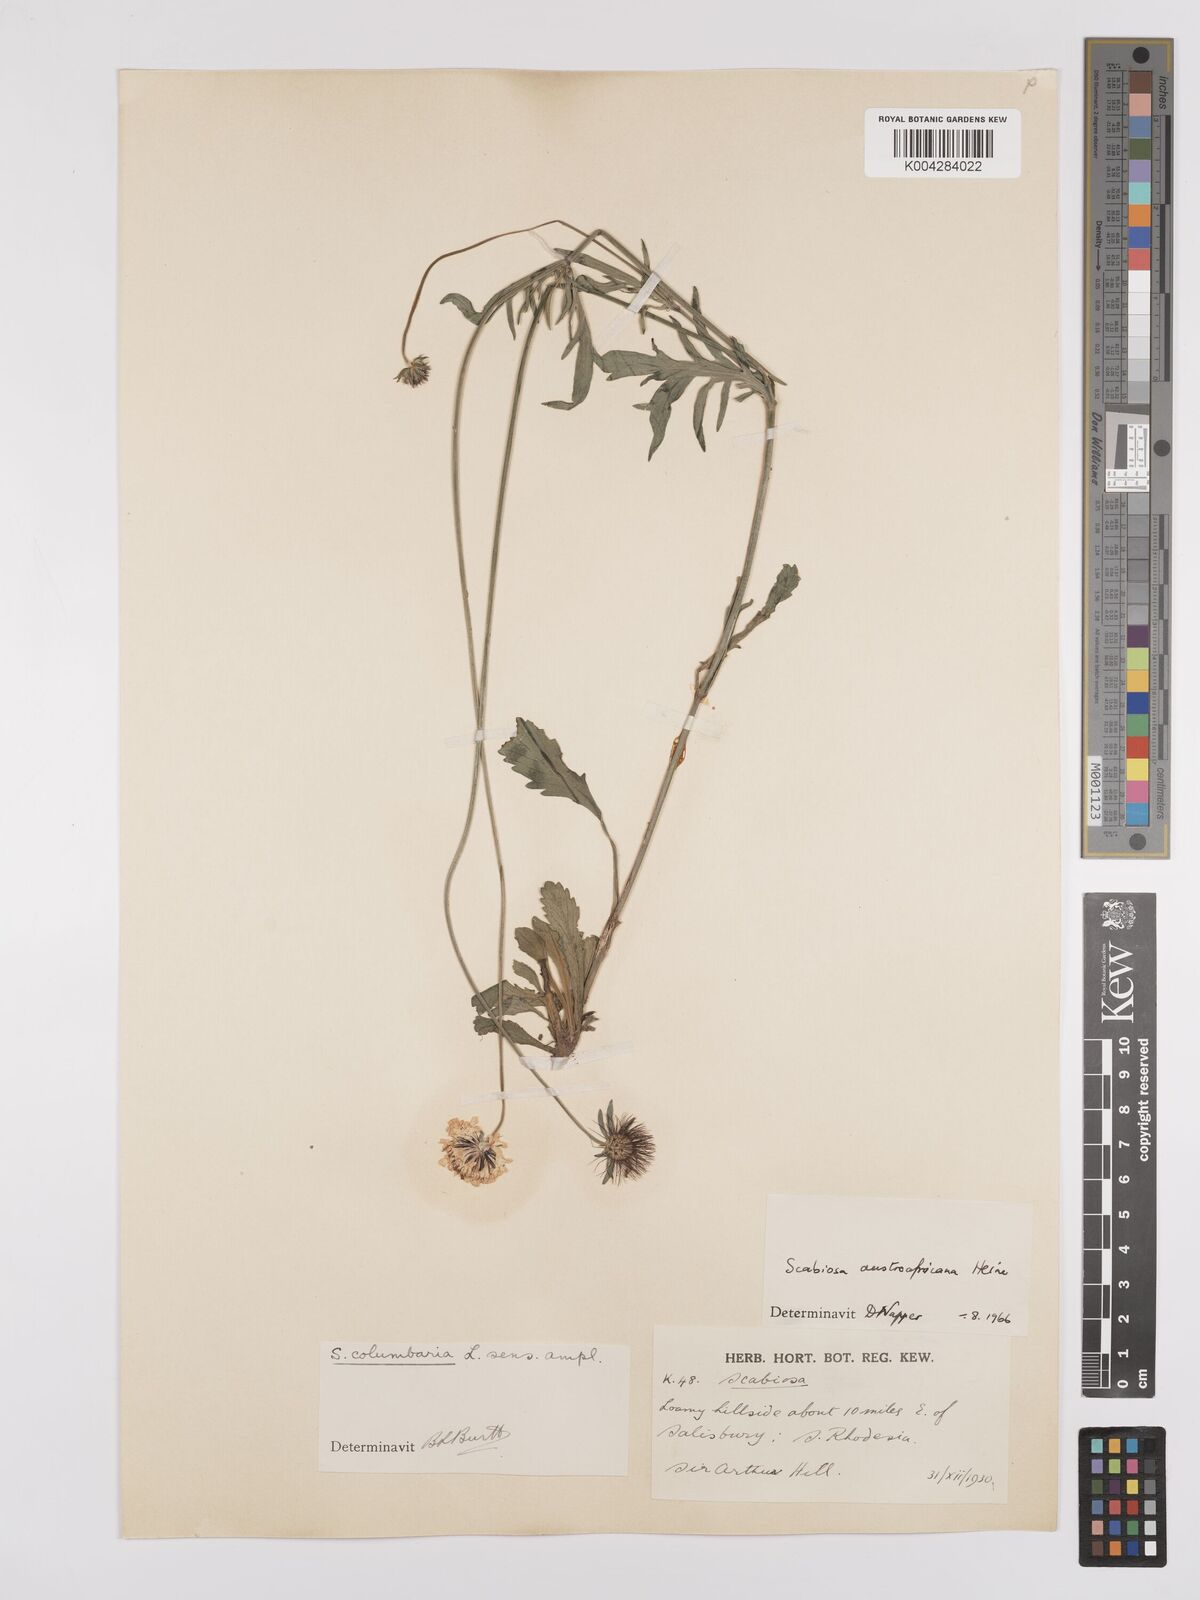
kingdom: Plantae
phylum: Tracheophyta
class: Magnoliopsida
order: Dipsacales
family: Caprifoliaceae
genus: Scabiosa
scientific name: Scabiosa austroafricana
